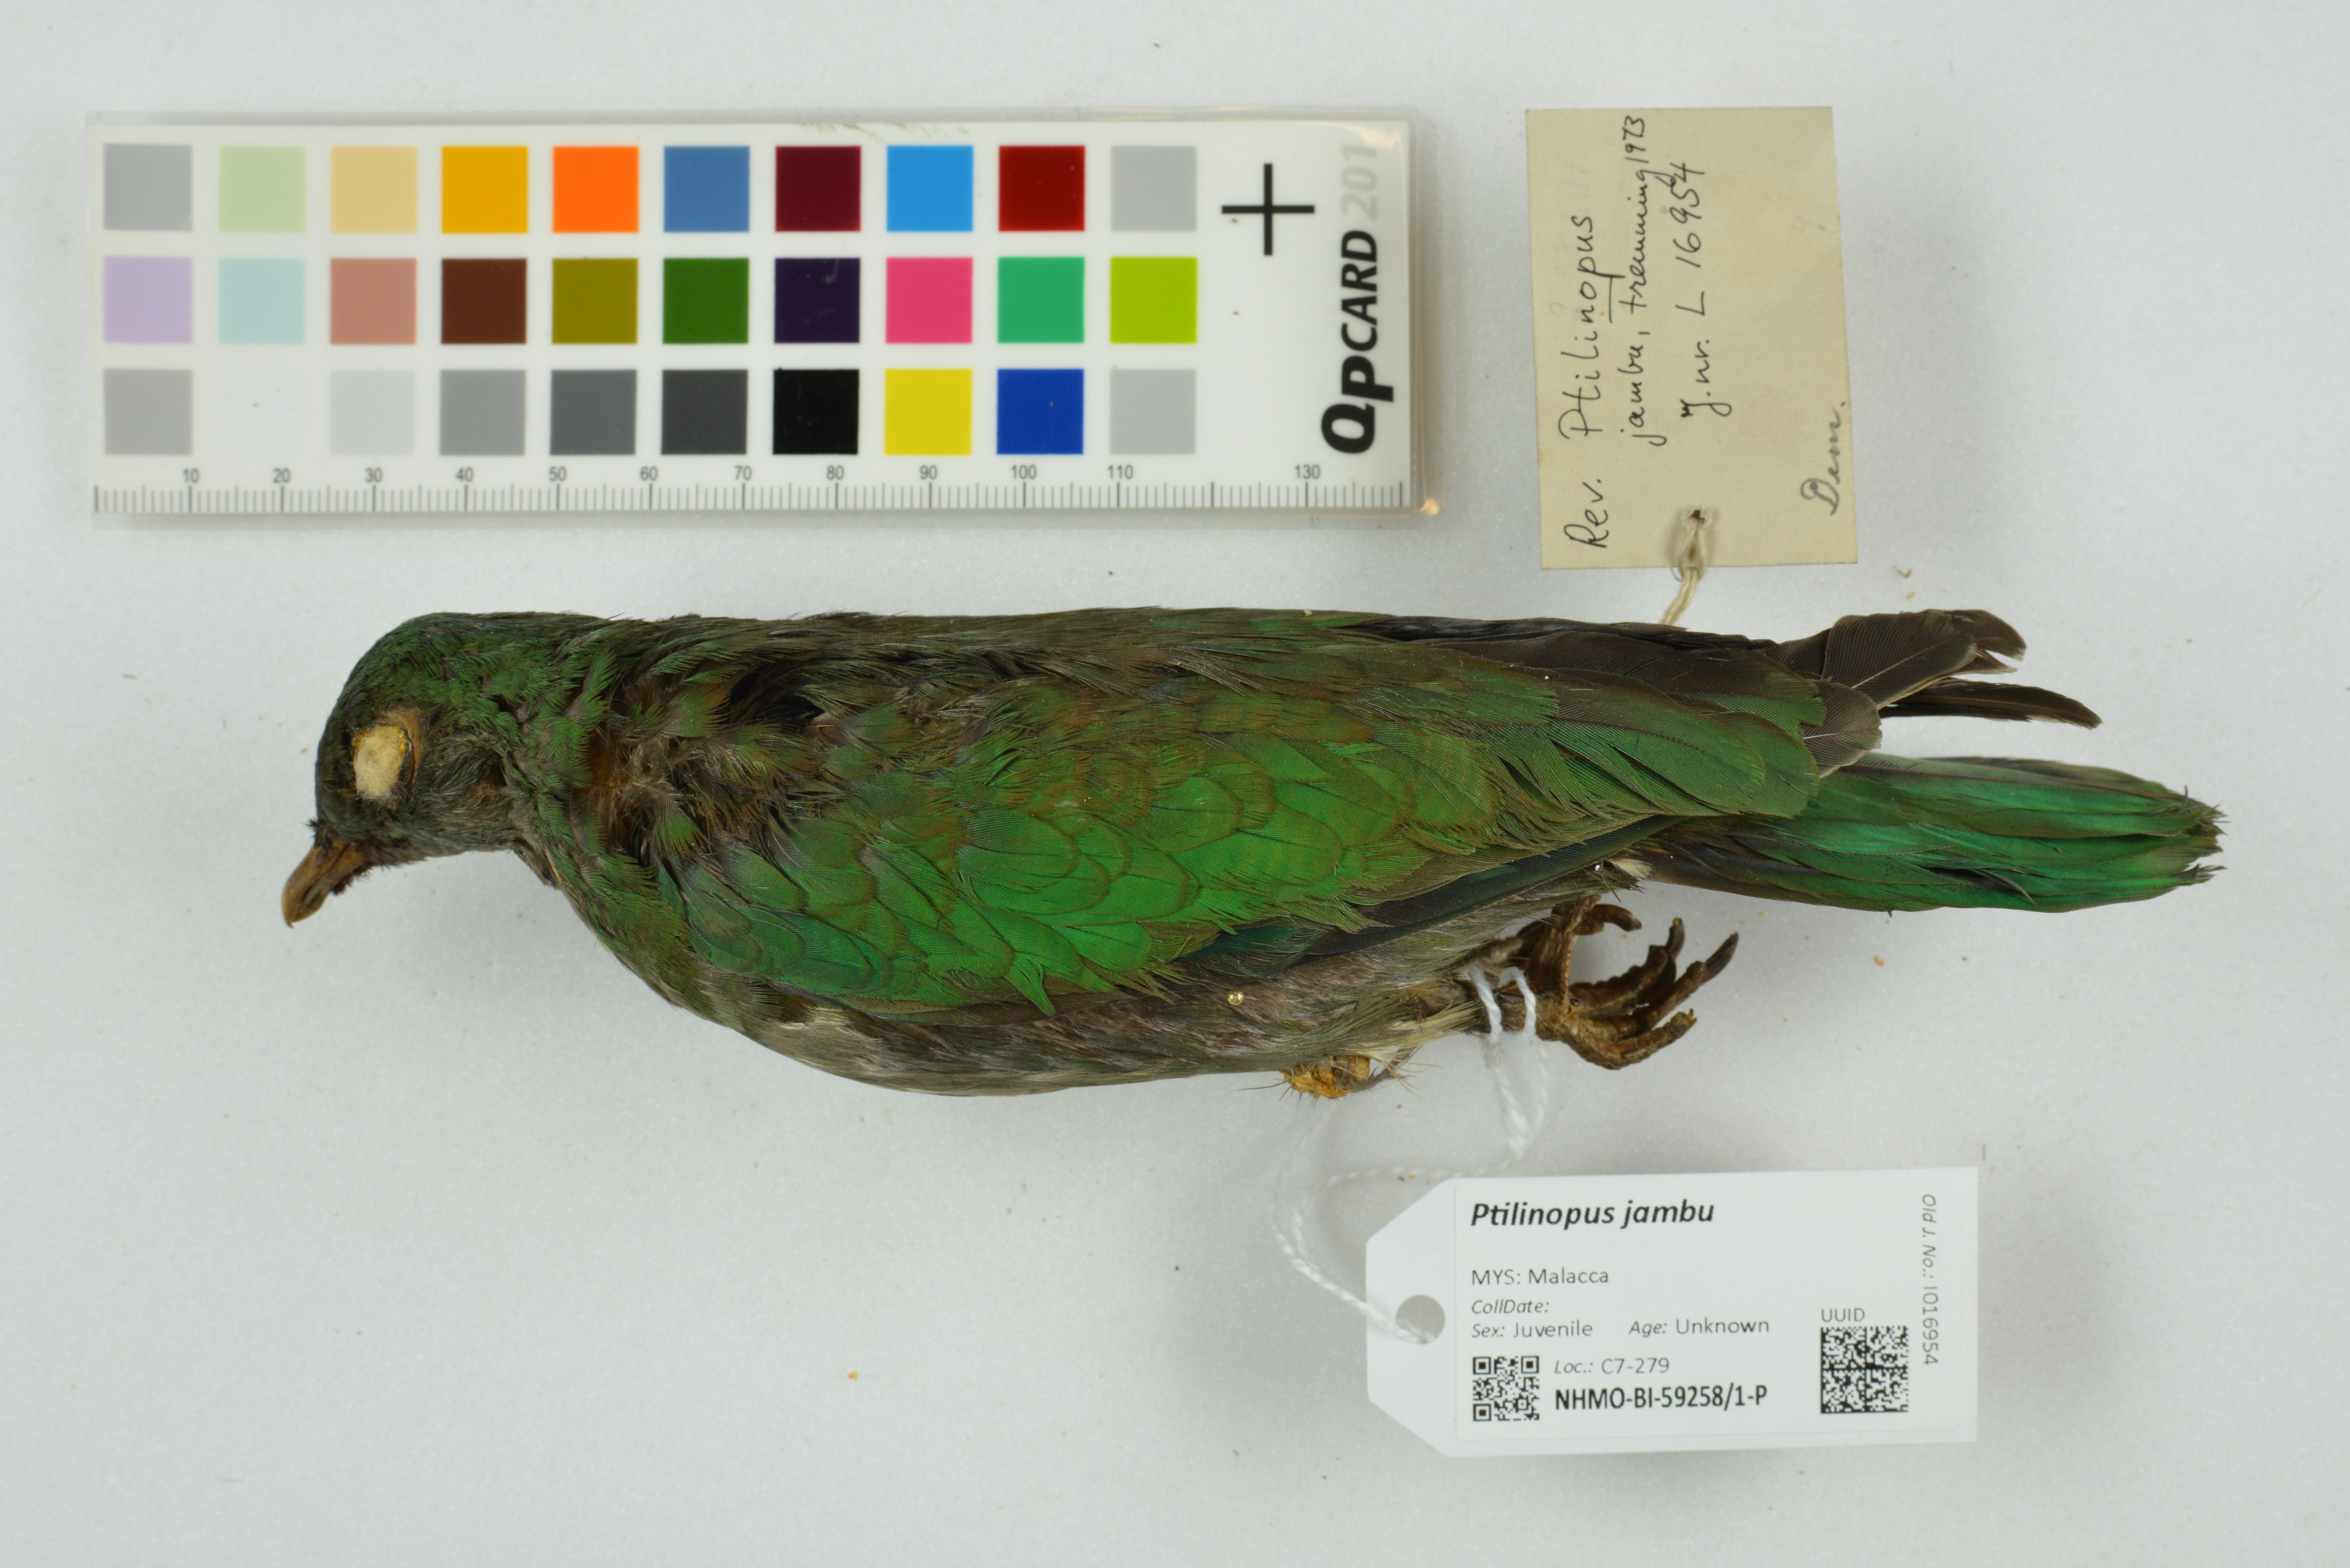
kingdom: Animalia
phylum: Chordata
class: Aves
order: Columbiformes
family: Columbidae
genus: Ptilinopus
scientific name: Ptilinopus jambu
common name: Jambu fruit dove
